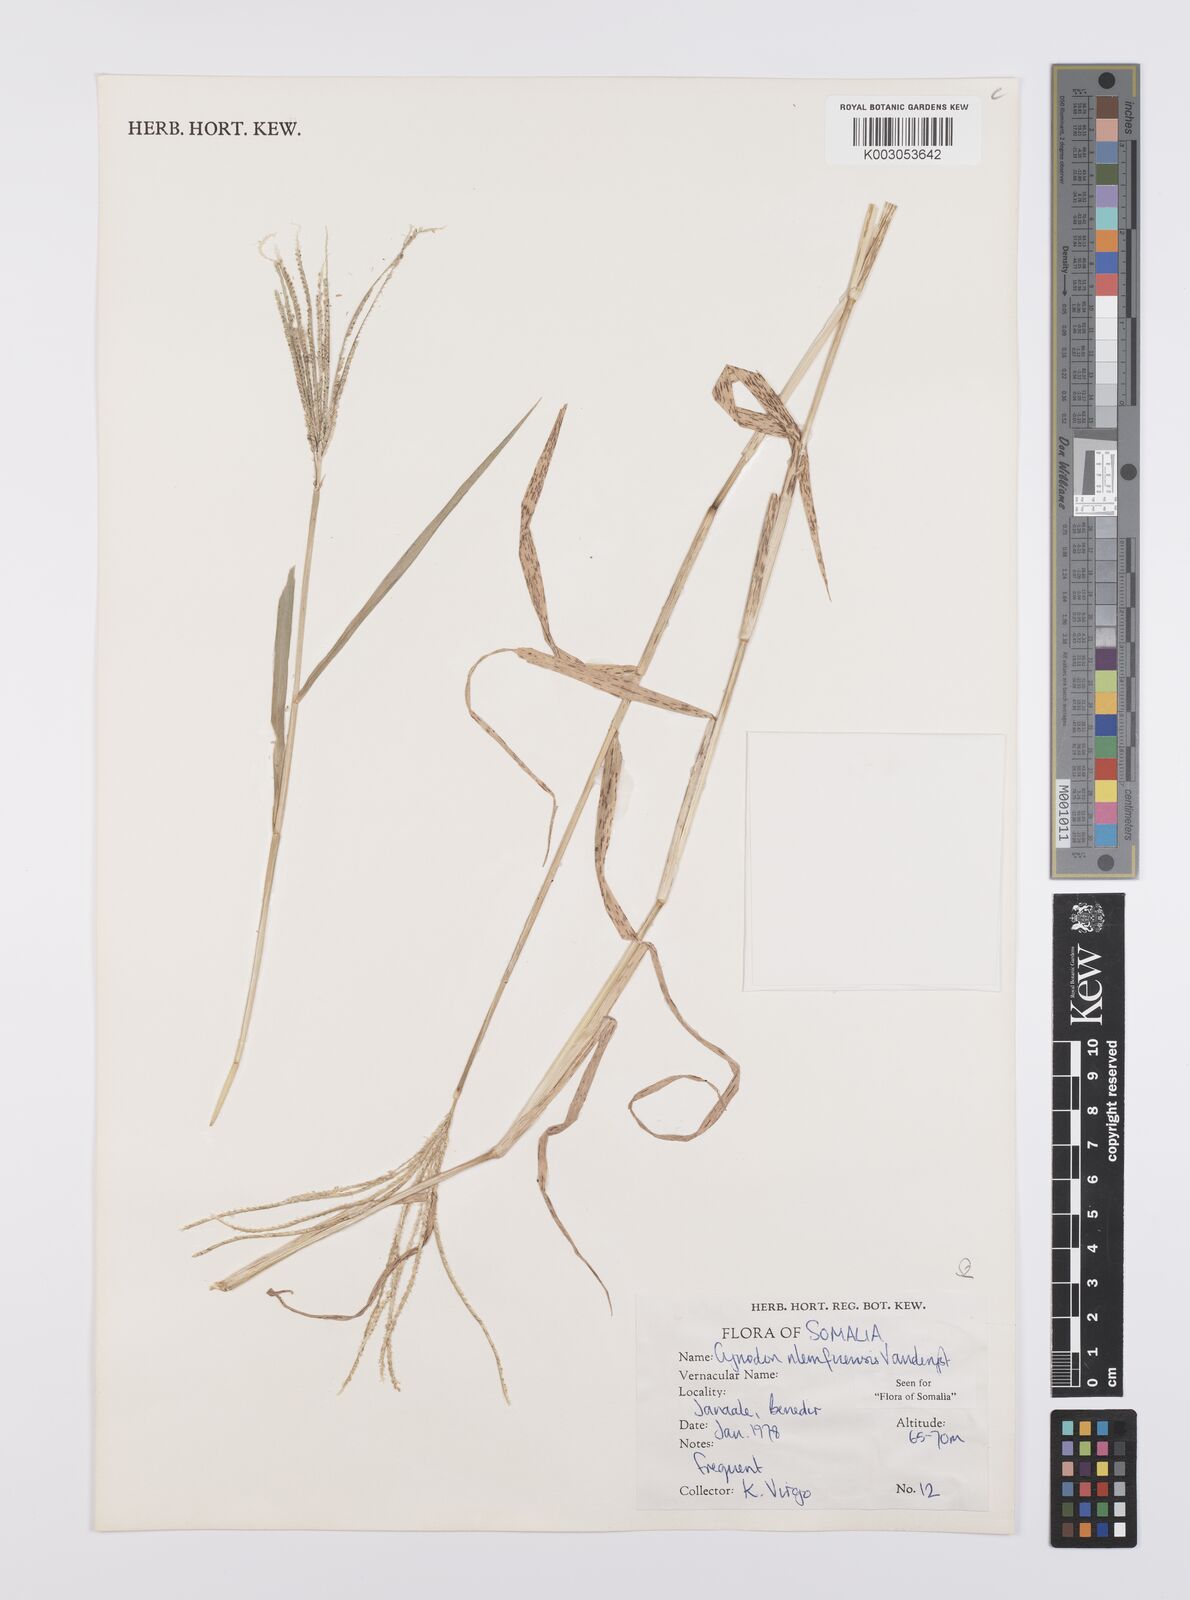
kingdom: Plantae
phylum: Tracheophyta
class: Liliopsida
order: Poales
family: Poaceae
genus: Cynodon
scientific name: Cynodon nlemfuensis
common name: African bermudagrass
